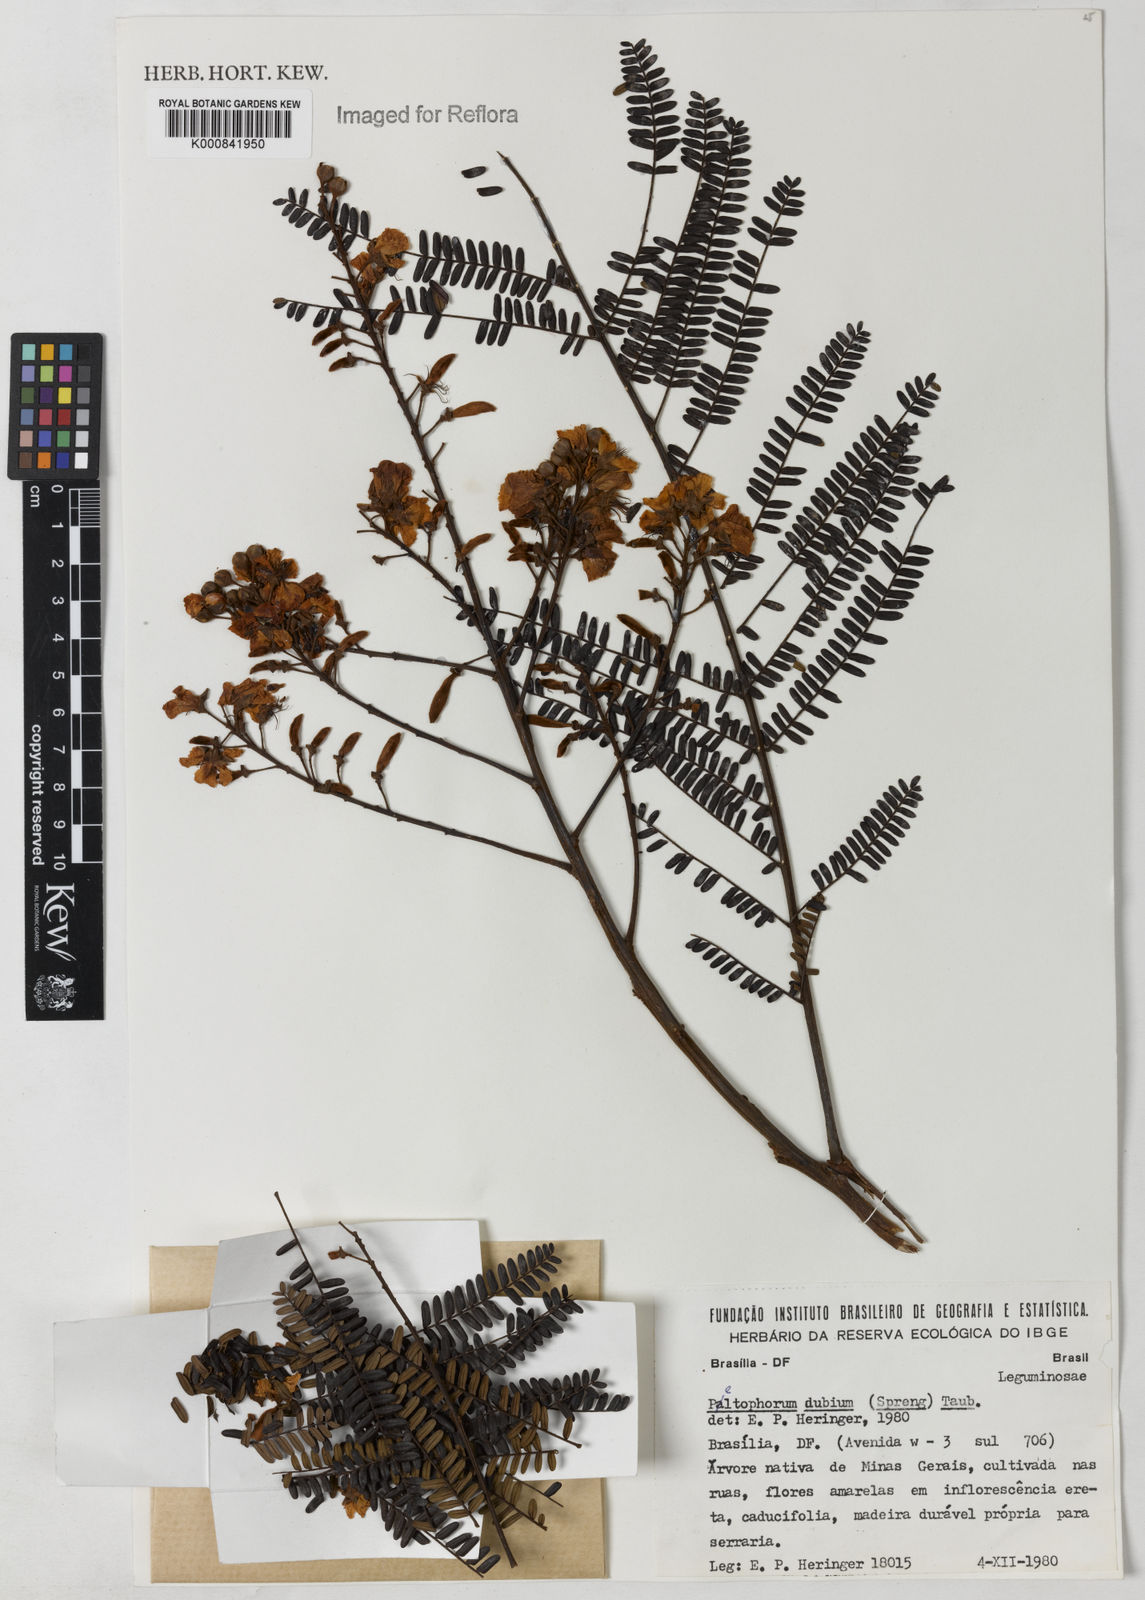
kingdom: Plantae
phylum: Tracheophyta
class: Magnoliopsida
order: Fabales
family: Fabaceae
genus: Peltophorum
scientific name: Peltophorum dubium
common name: Horsebush
